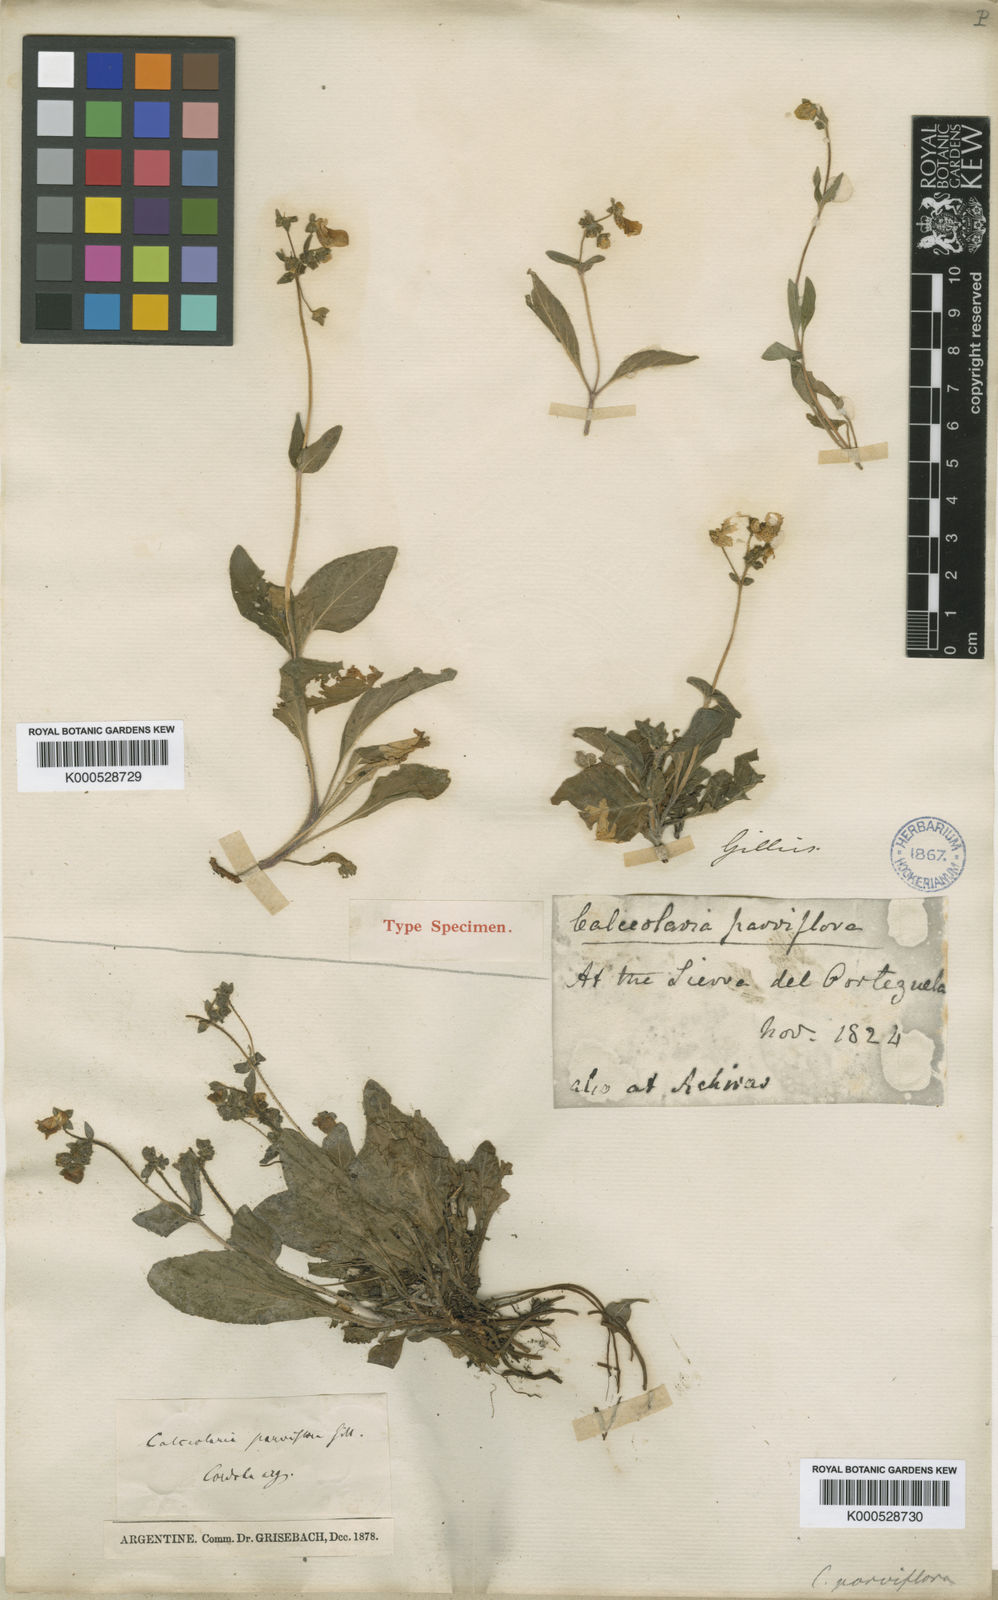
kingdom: Plantae
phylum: Tracheophyta
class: Magnoliopsida
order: Lamiales
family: Calceolariaceae
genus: Calceolaria
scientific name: Calceolaria
